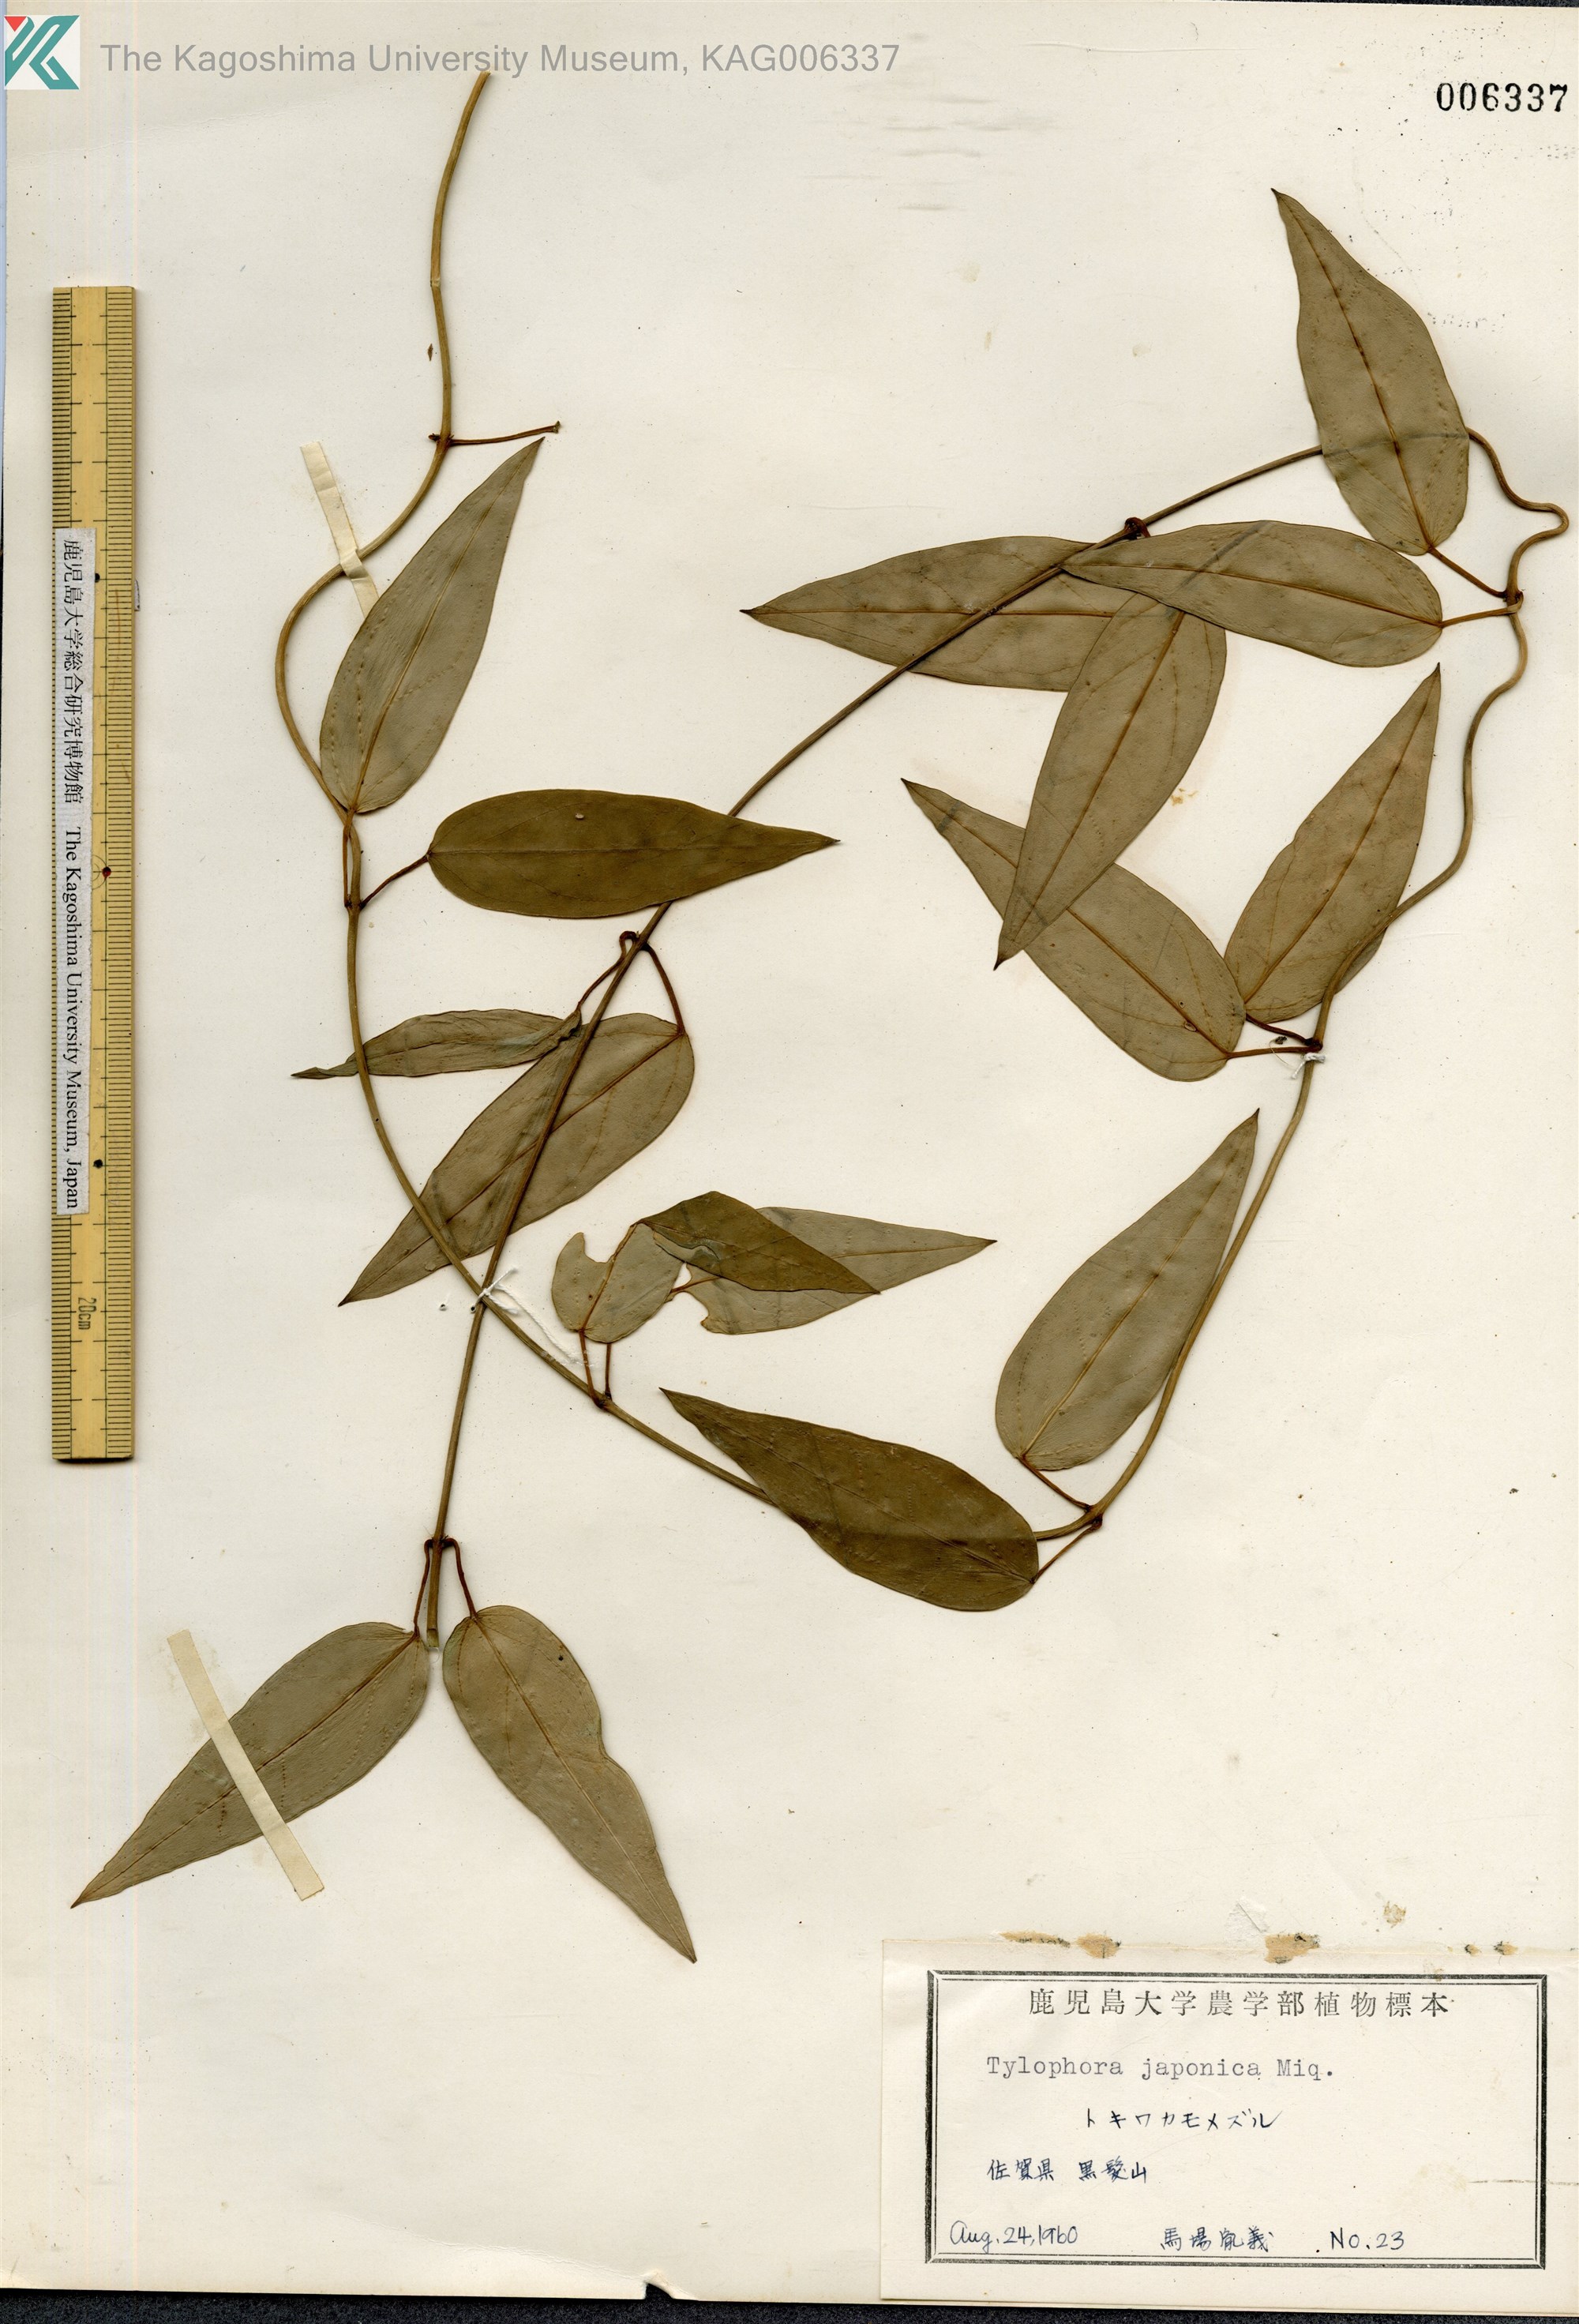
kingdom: Plantae
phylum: Tracheophyta
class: Magnoliopsida
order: Gentianales
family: Apocynaceae
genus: Vincetoxicum
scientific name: Vincetoxicum sieboldii
